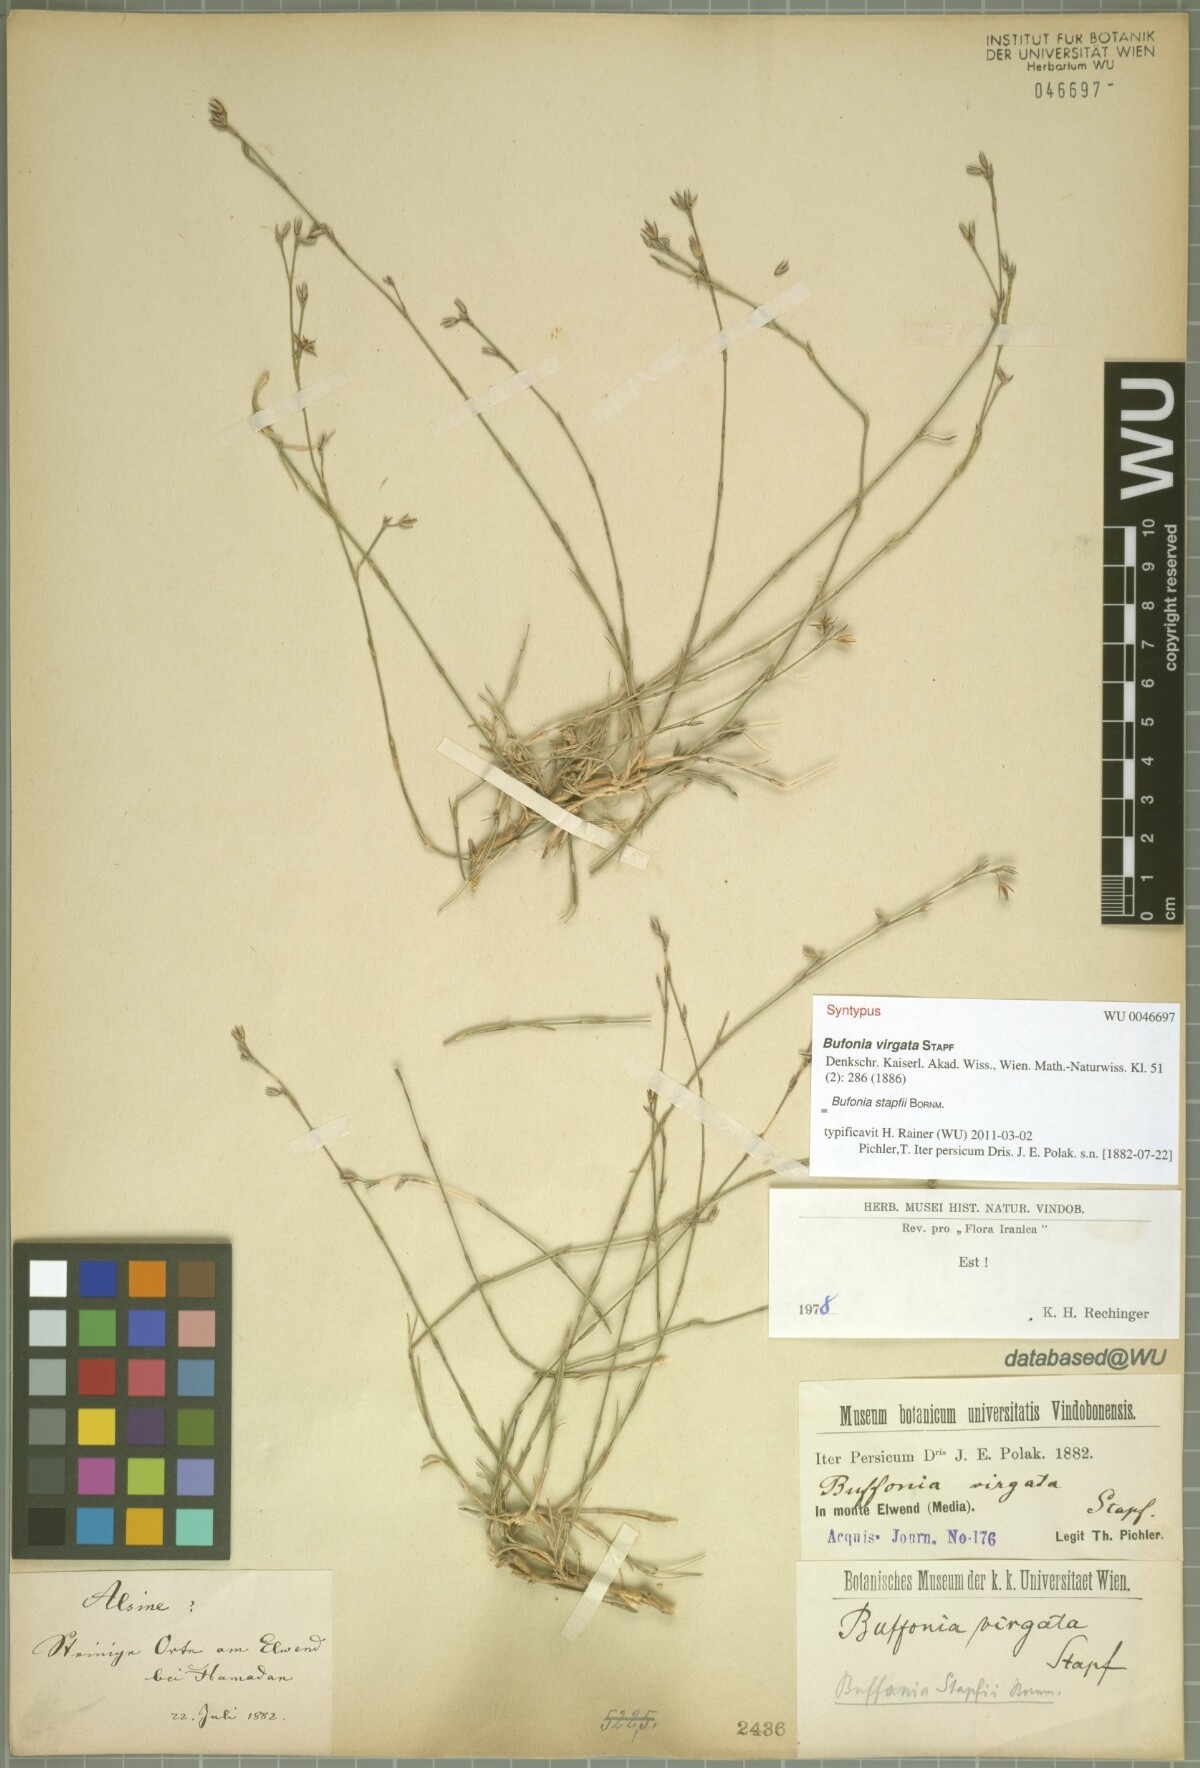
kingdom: Plantae
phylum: Tracheophyta
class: Magnoliopsida
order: Caryophyllales
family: Caryophyllaceae
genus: Bufonia
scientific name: Bufonia stapfii
